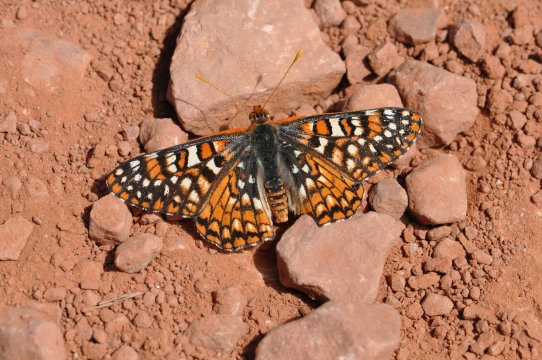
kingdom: Animalia
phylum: Arthropoda
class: Insecta
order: Lepidoptera
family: Nymphalidae
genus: Occidryas
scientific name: Occidryas anicia
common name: Anicia Checkerspot
